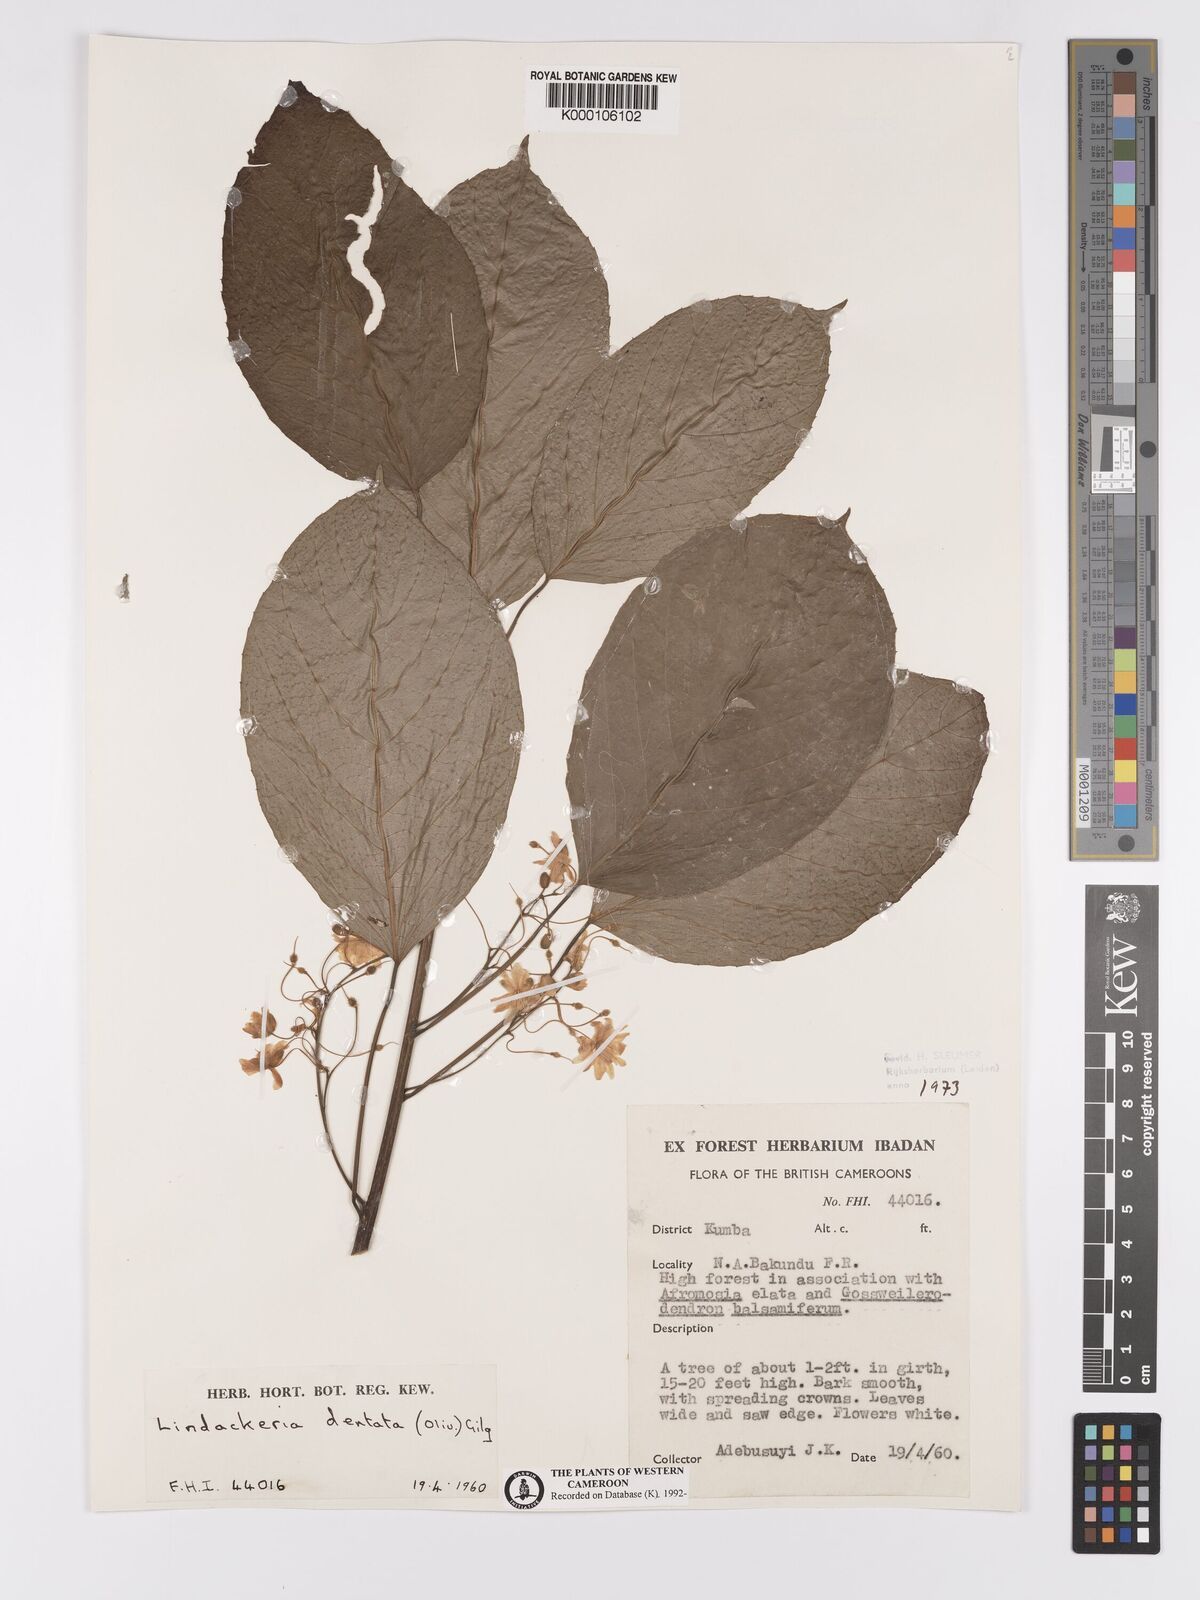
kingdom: Plantae
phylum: Tracheophyta
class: Magnoliopsida
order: Malpighiales
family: Achariaceae
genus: Lindackeria
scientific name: Lindackeria dentata
